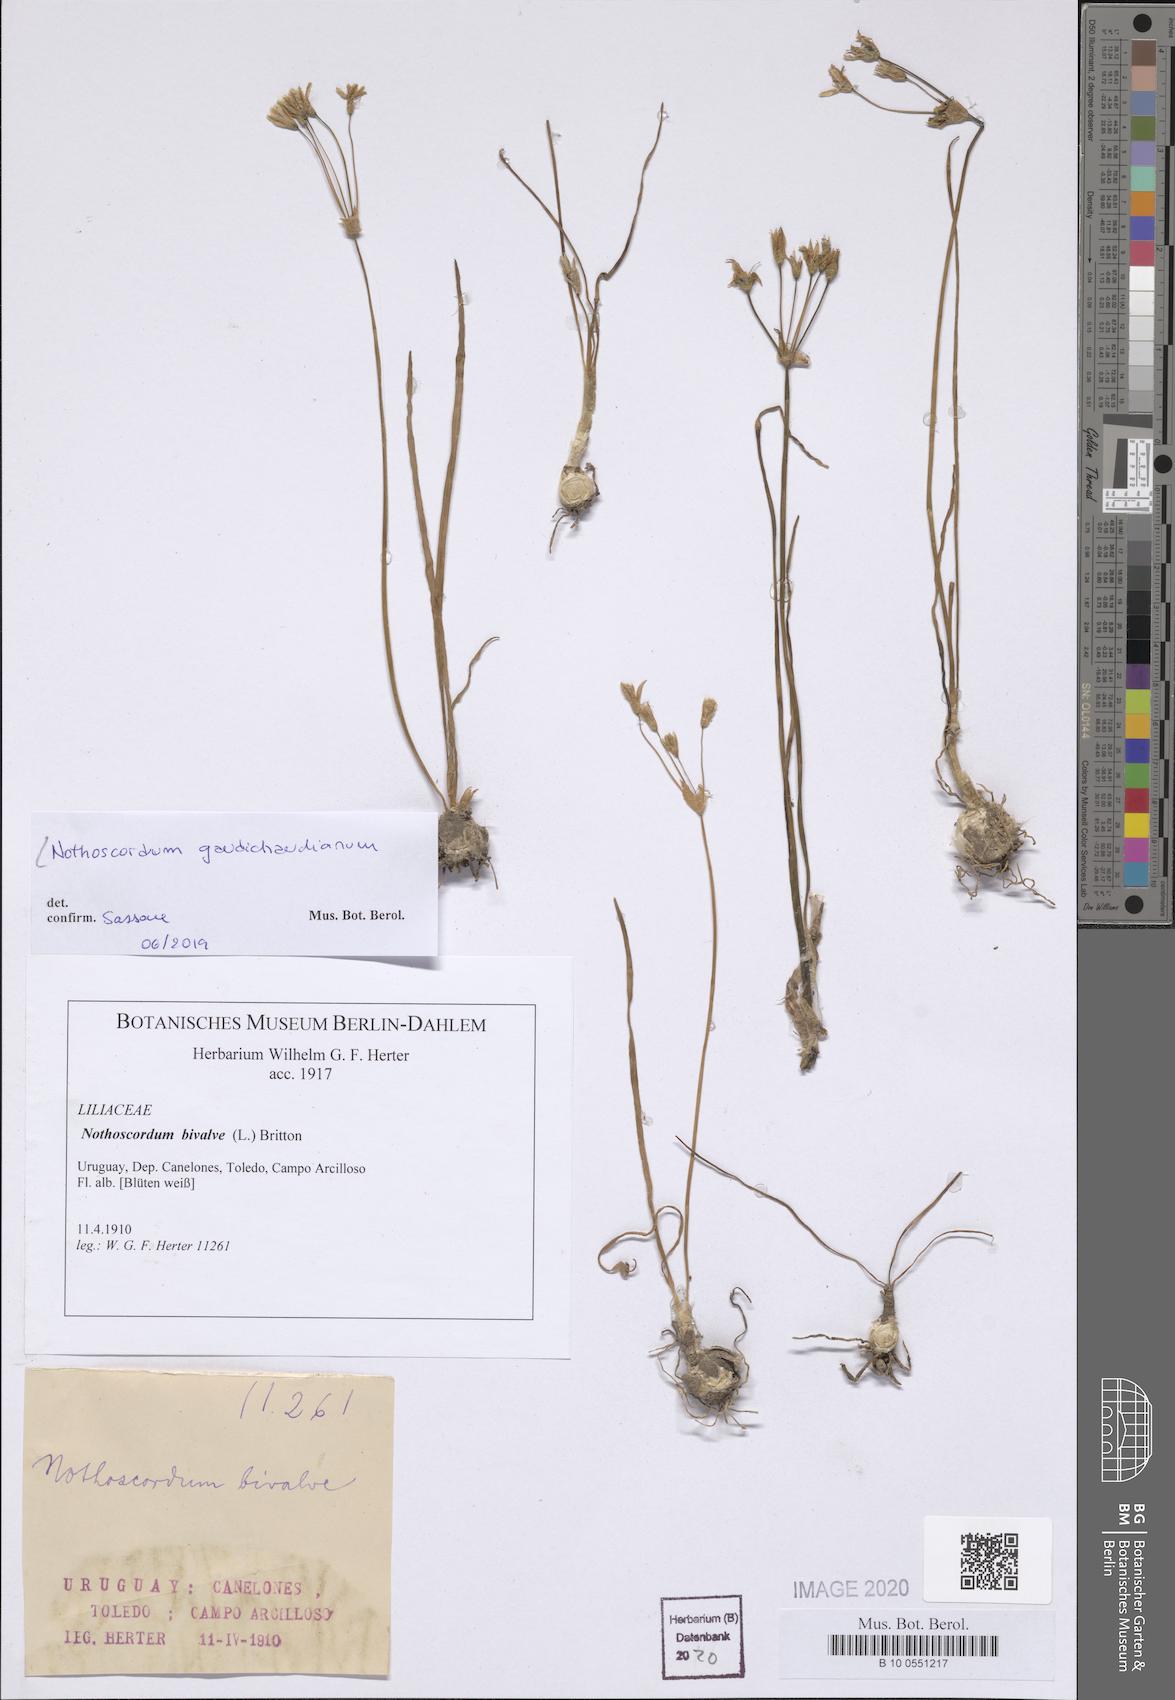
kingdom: Plantae
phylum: Tracheophyta
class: Liliopsida
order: Asparagales
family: Amaryllidaceae
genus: Nothoscordum
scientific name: Nothoscordum gaudichaudianum
